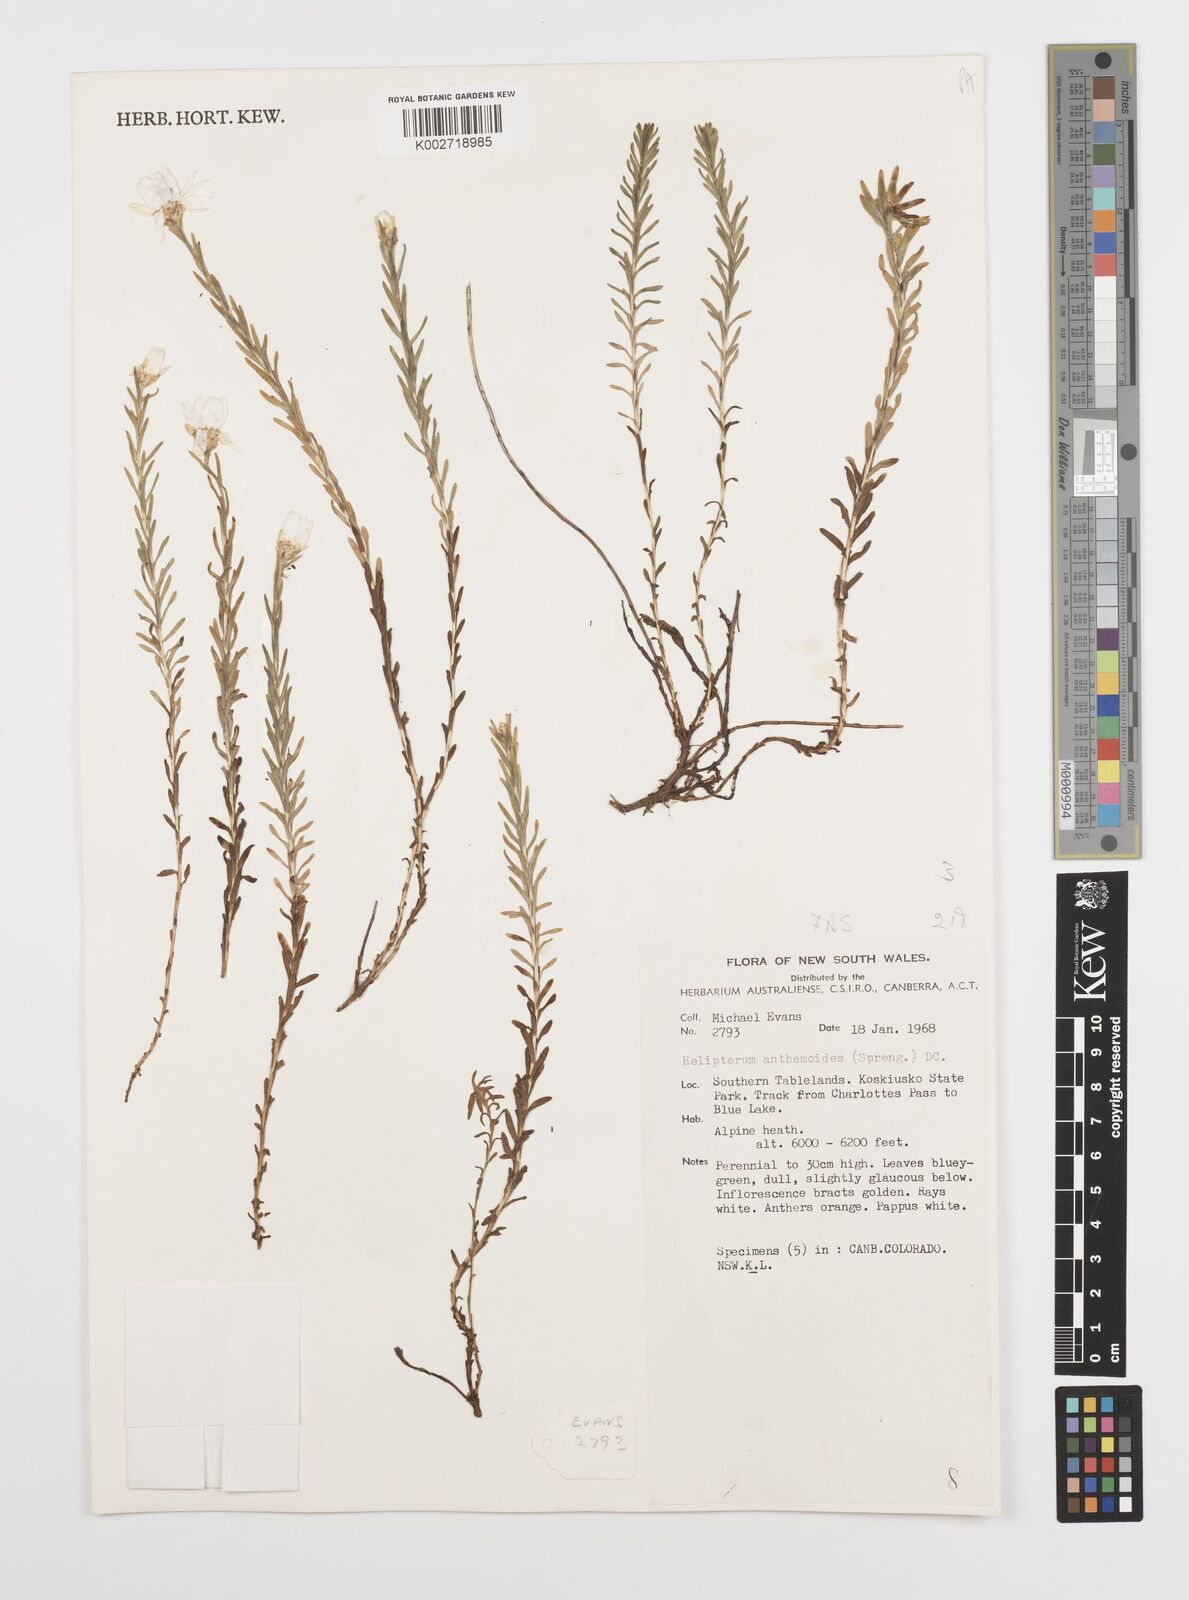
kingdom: Plantae
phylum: Tracheophyta
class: Magnoliopsida
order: Asterales
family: Asteraceae
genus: Rhodanthe
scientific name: Rhodanthe anthemoides
